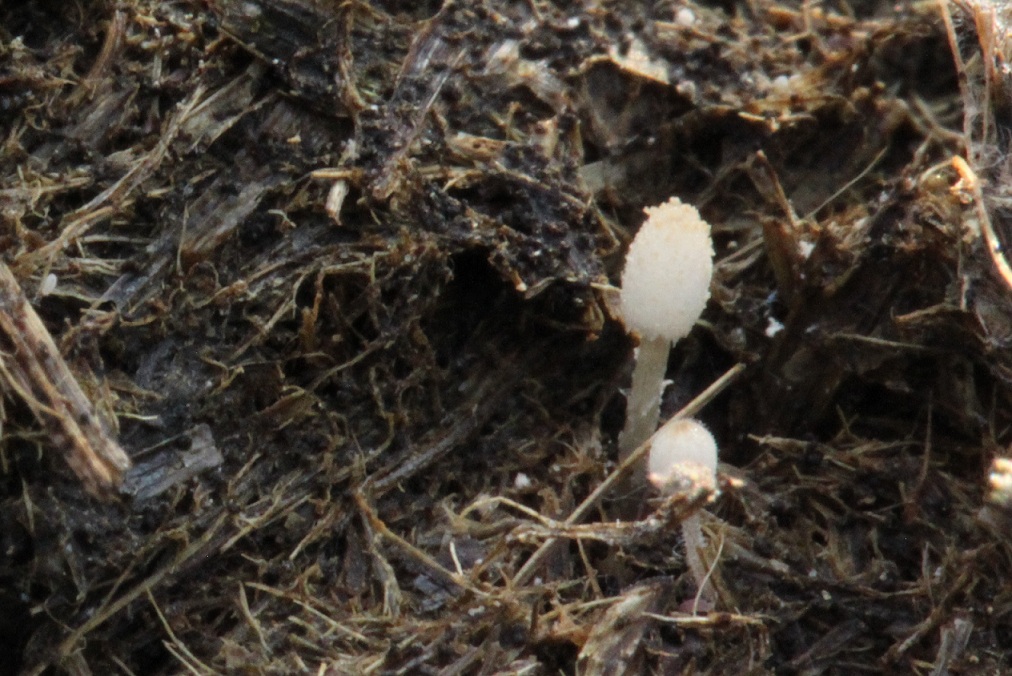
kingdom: Fungi
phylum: Basidiomycota
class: Agaricomycetes
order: Agaricales
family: Psathyrellaceae
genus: Coprinellus
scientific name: Coprinellus heptemerus
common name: hjorte-blækhat
